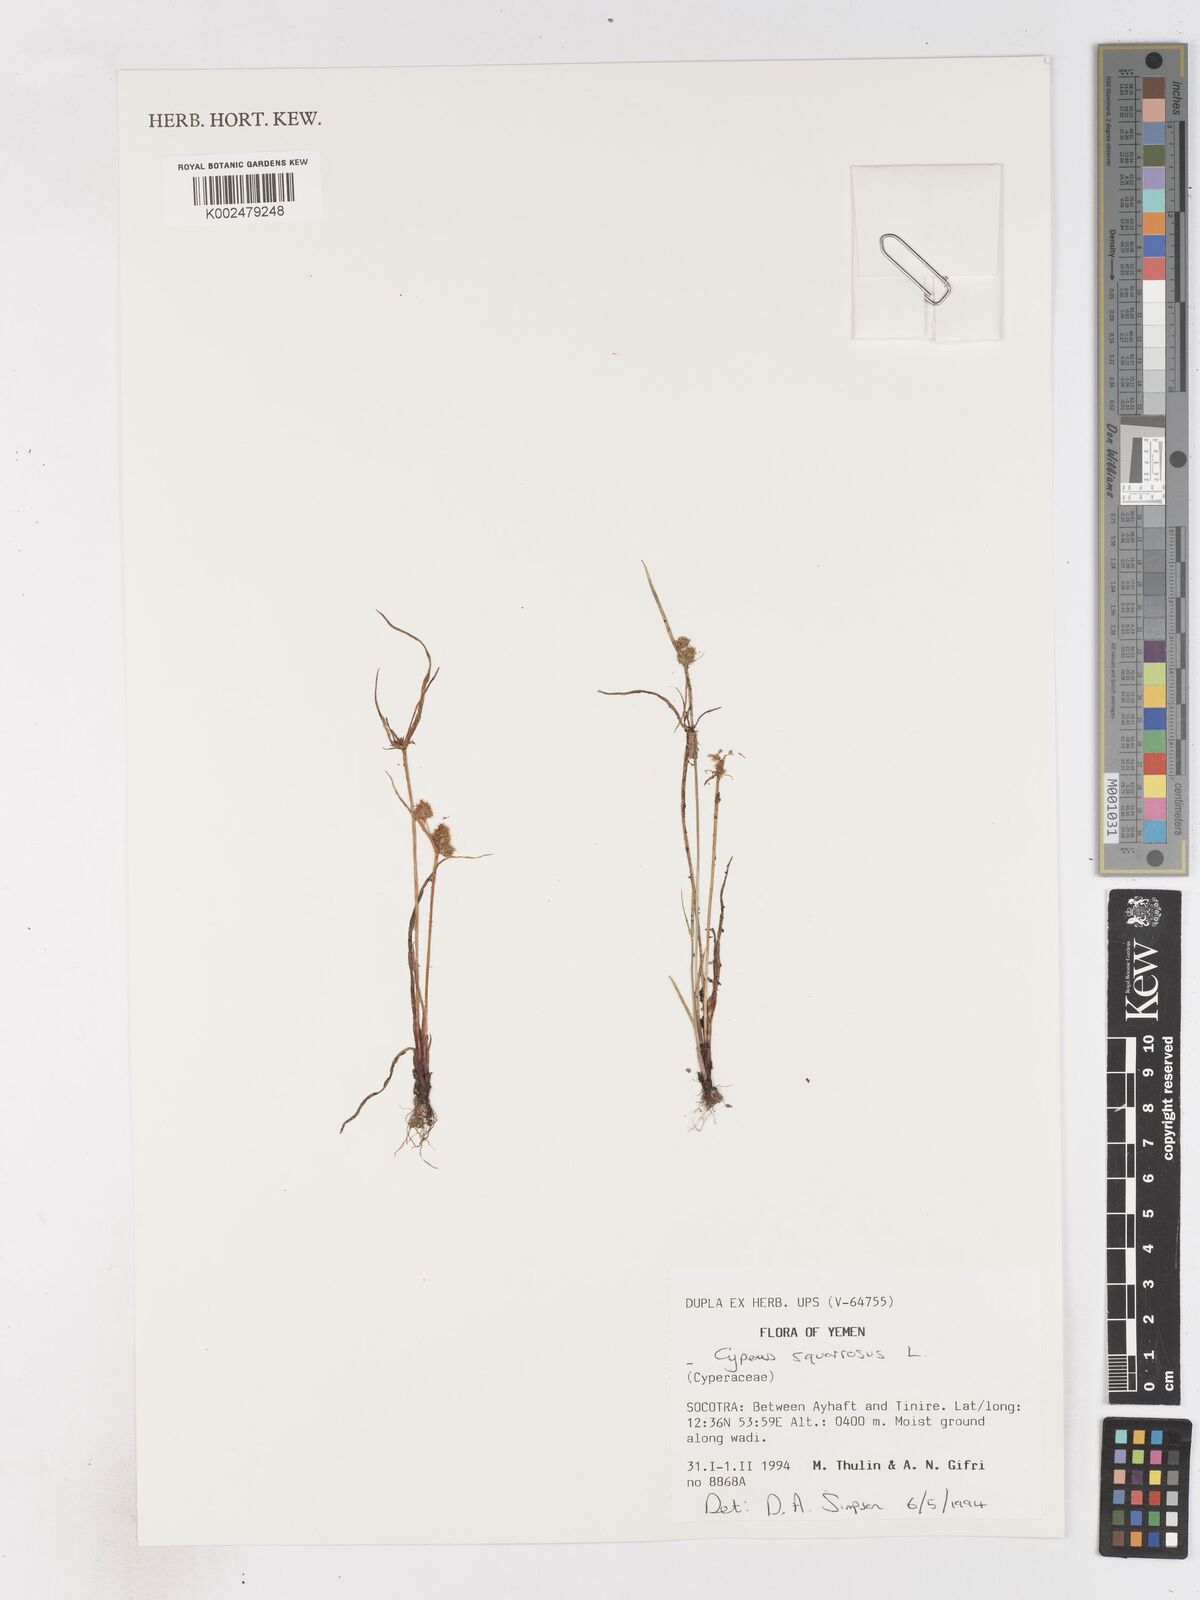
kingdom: Plantae
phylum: Tracheophyta
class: Liliopsida
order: Poales
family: Cyperaceae
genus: Cyperus
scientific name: Cyperus squarrosus
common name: Awned cyperus
